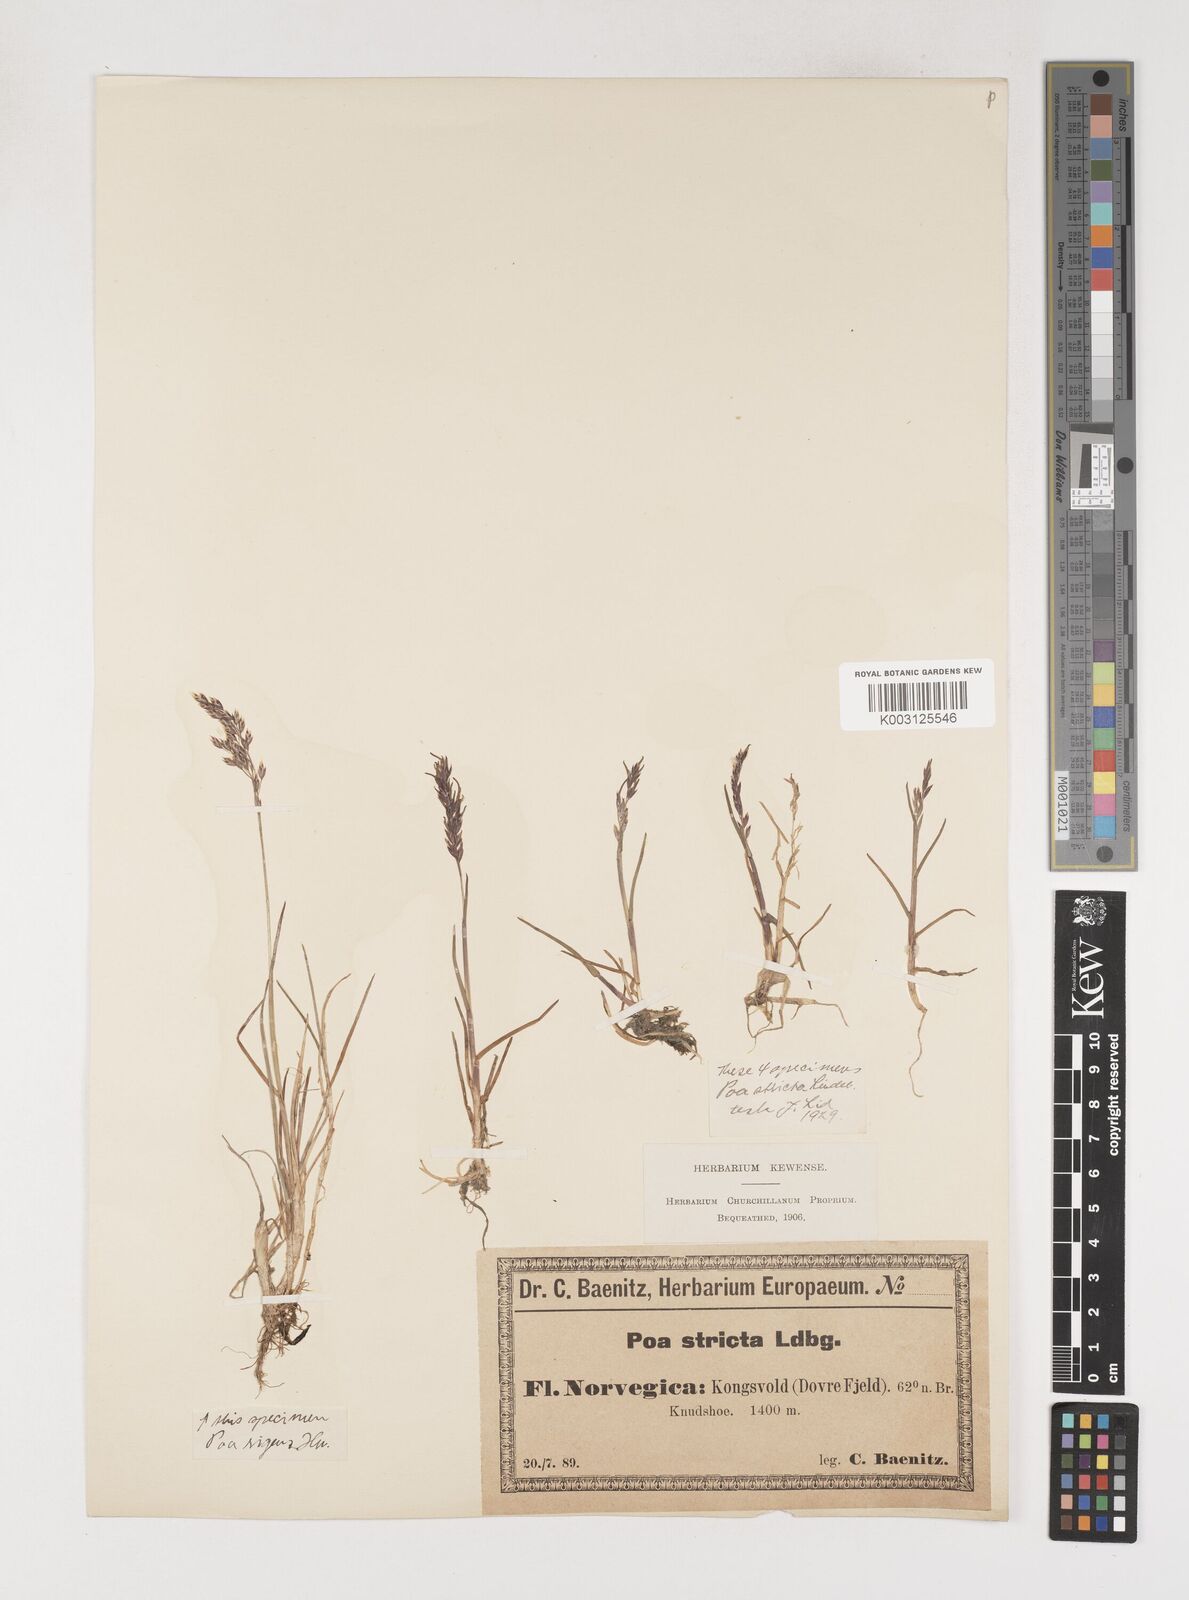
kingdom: Plantae
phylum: Tracheophyta
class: Liliopsida
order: Poales
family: Poaceae
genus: Poa
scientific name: Poa arctica
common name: Arctic bluegrass
